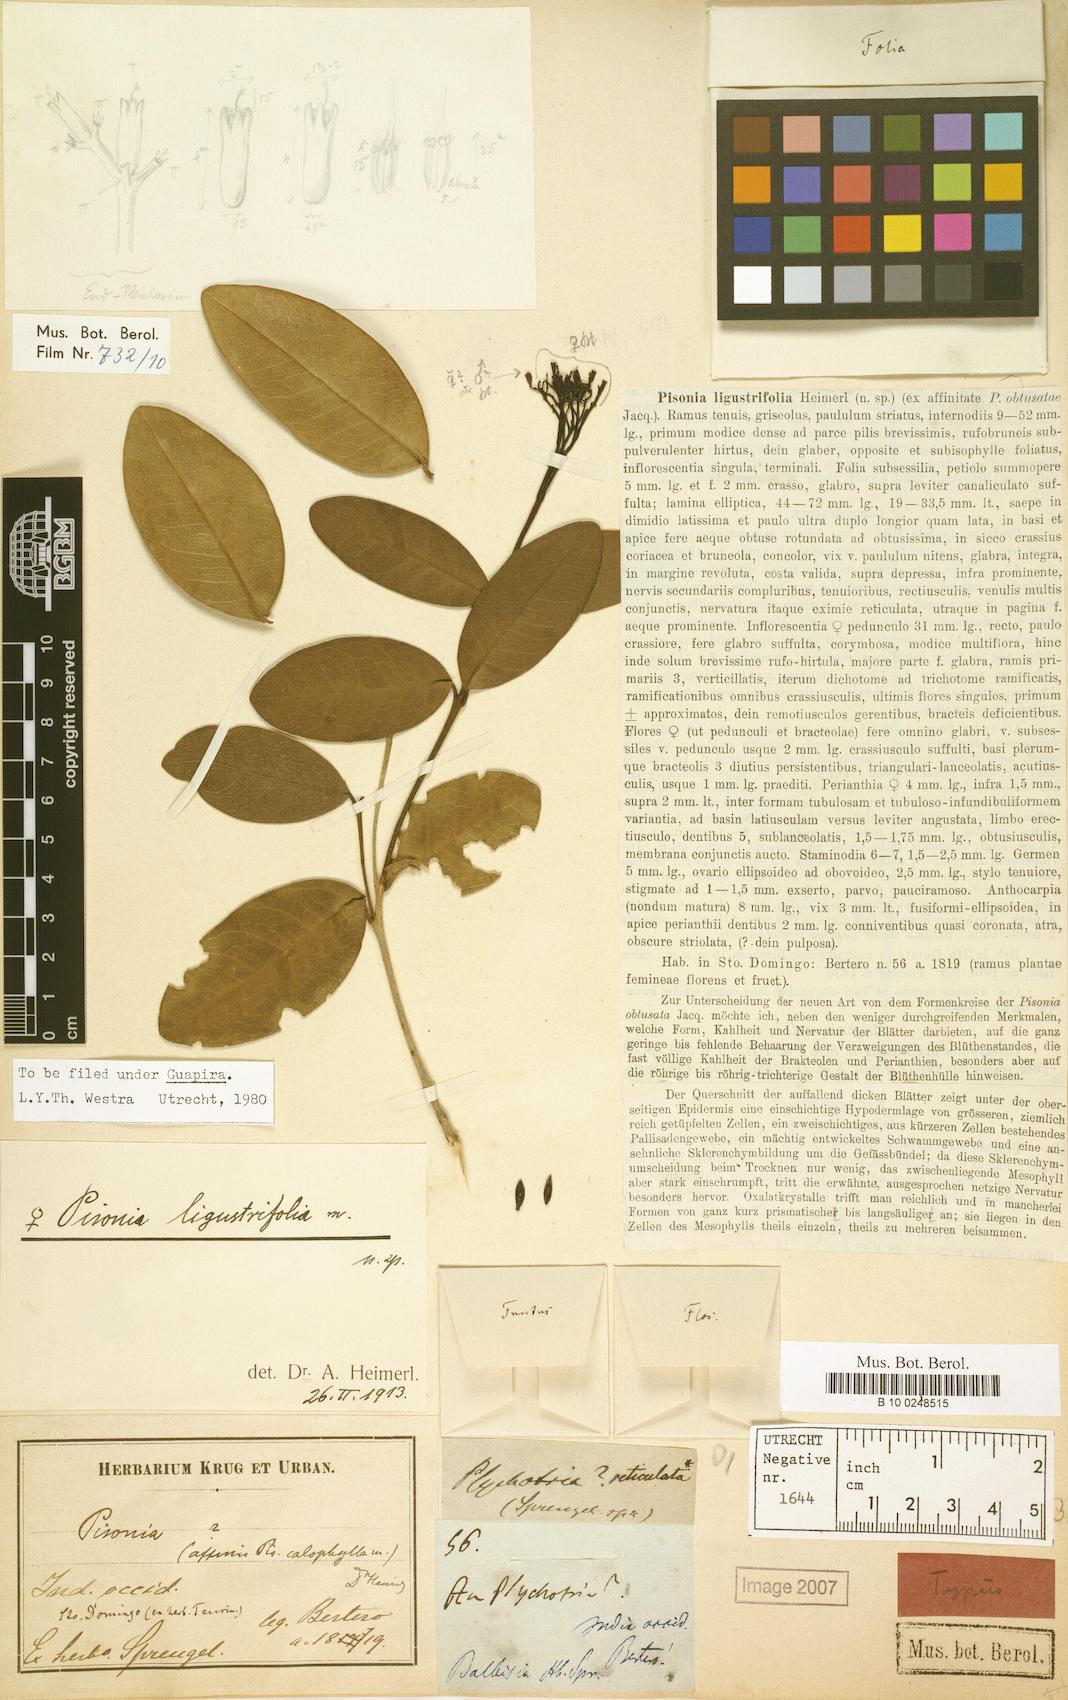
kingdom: Plantae
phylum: Tracheophyta
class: Magnoliopsida
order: Caryophyllales
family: Nyctaginaceae
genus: Guapira
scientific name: Guapira ligustrifolia
